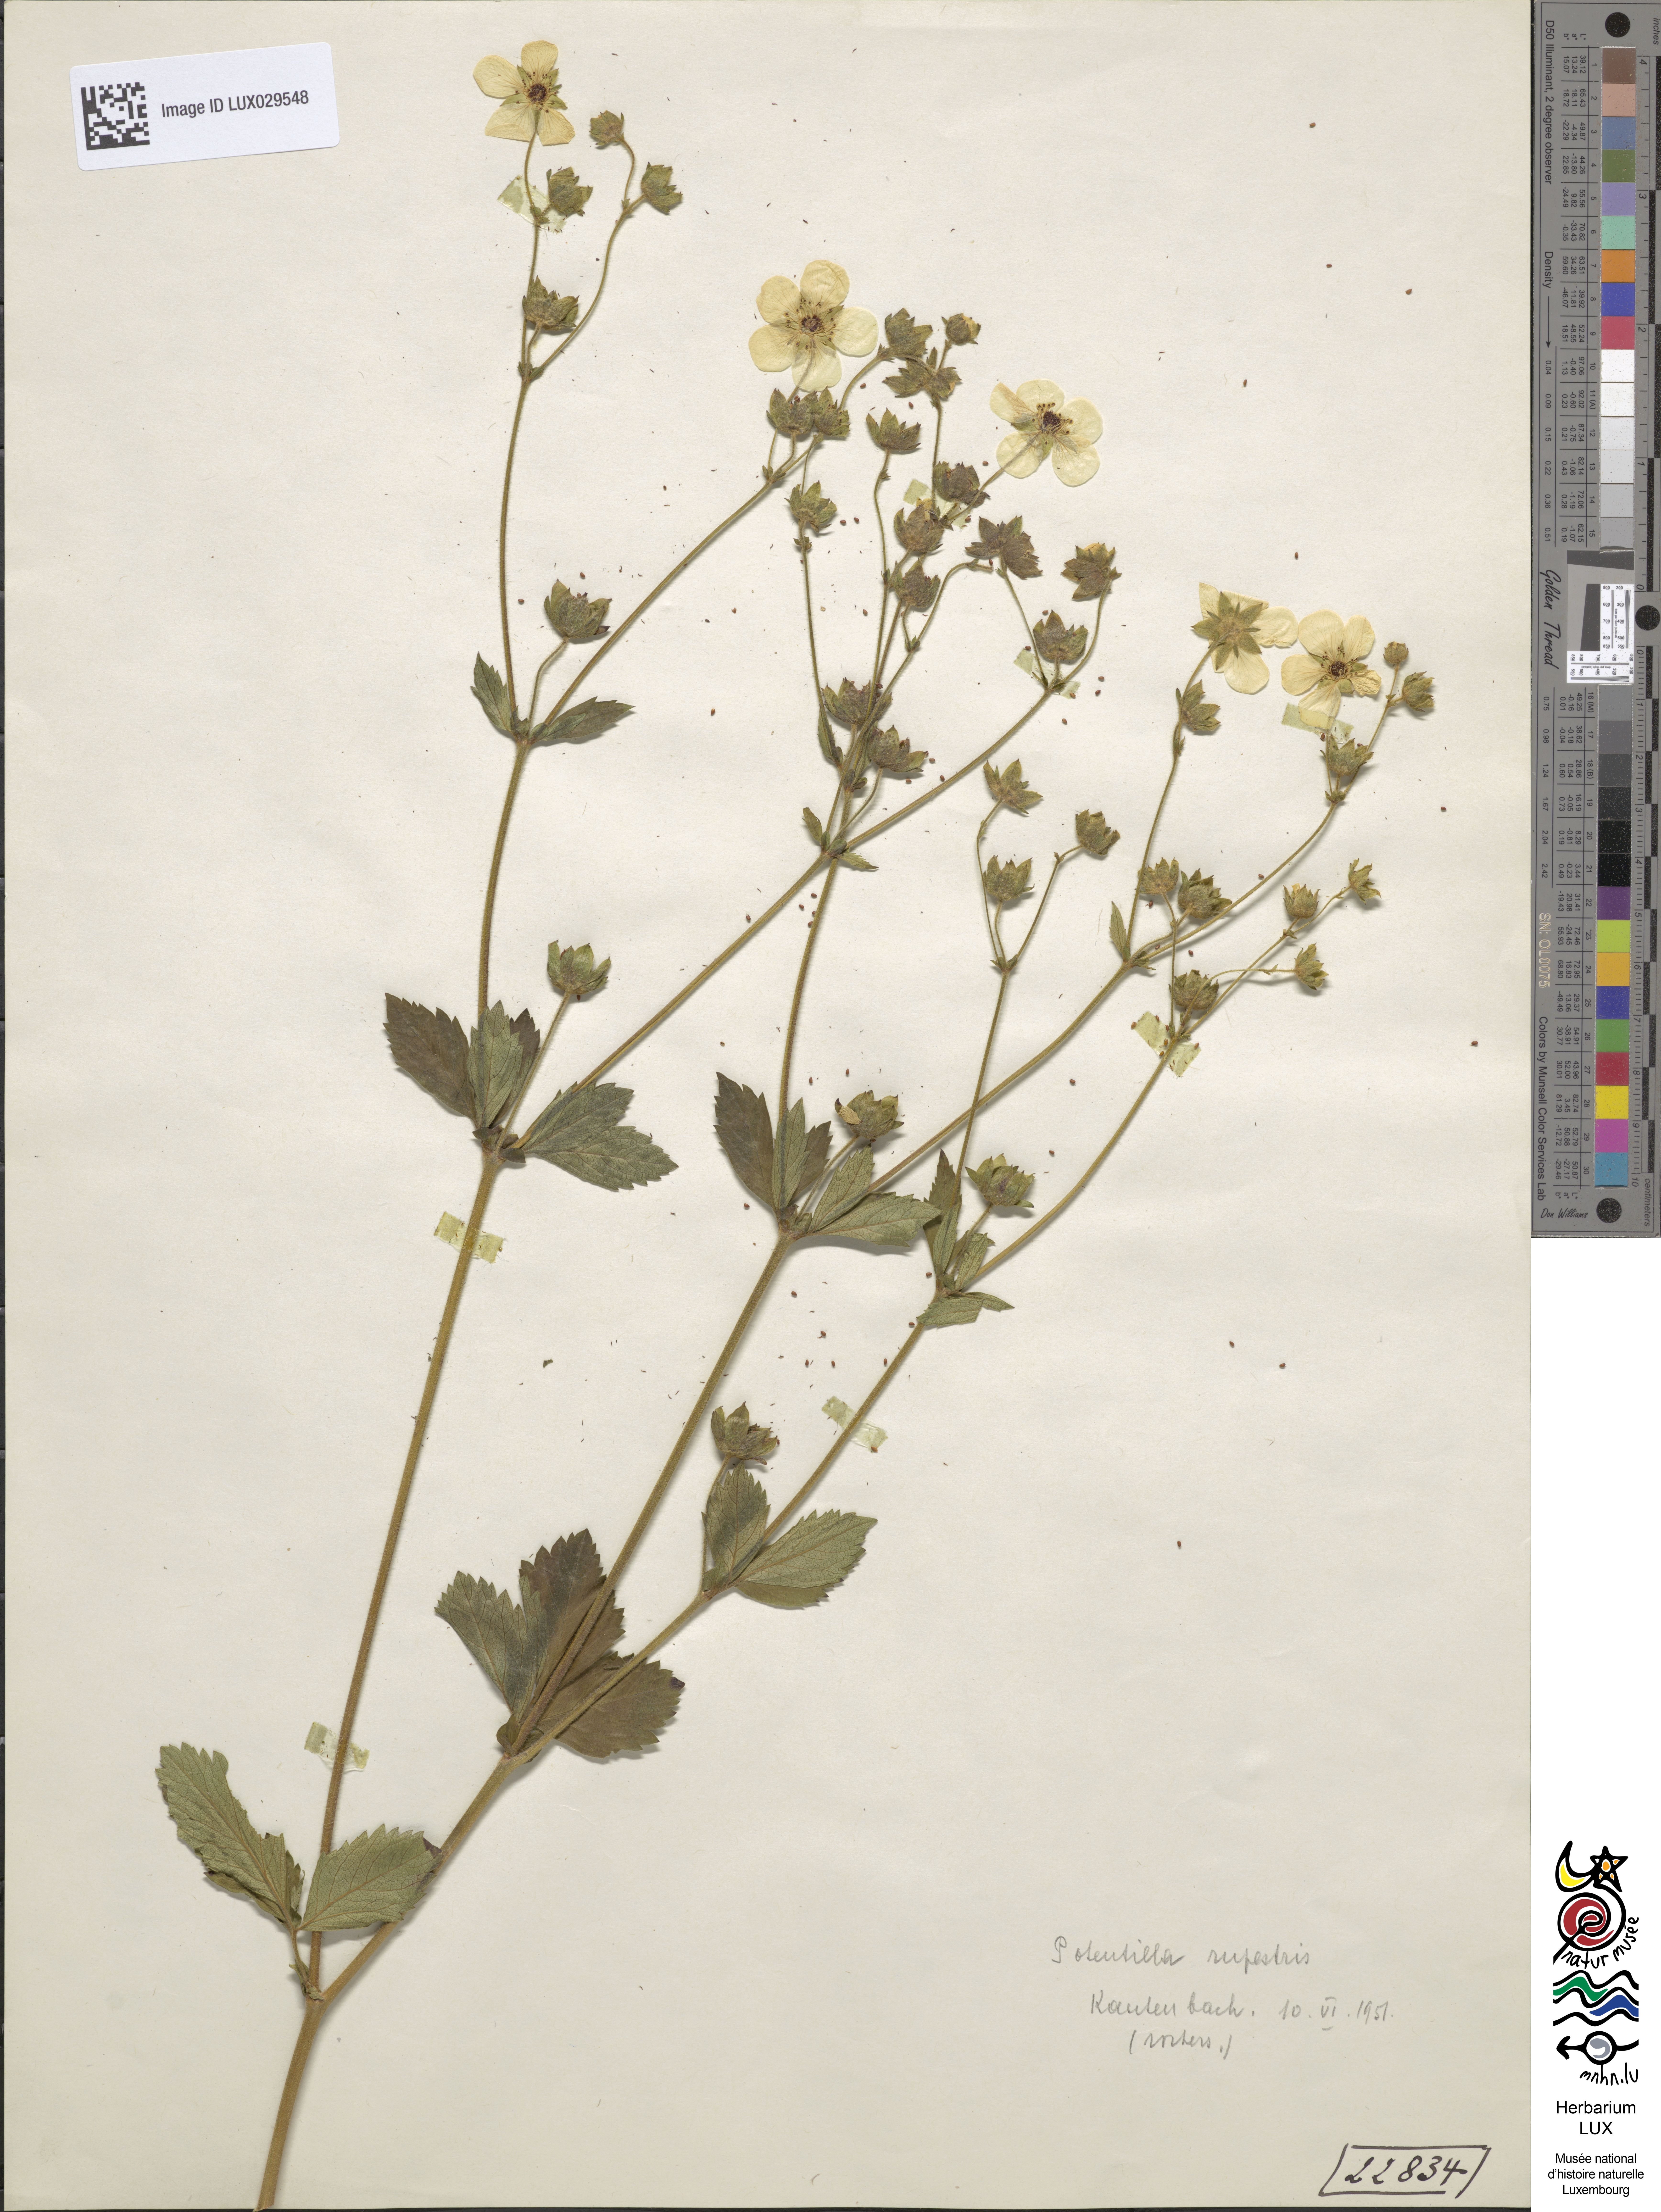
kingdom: Plantae
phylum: Tracheophyta
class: Magnoliopsida
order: Rosales
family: Rosaceae
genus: Drymocallis
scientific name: Drymocallis rupestris
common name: Rock cinquefoil
